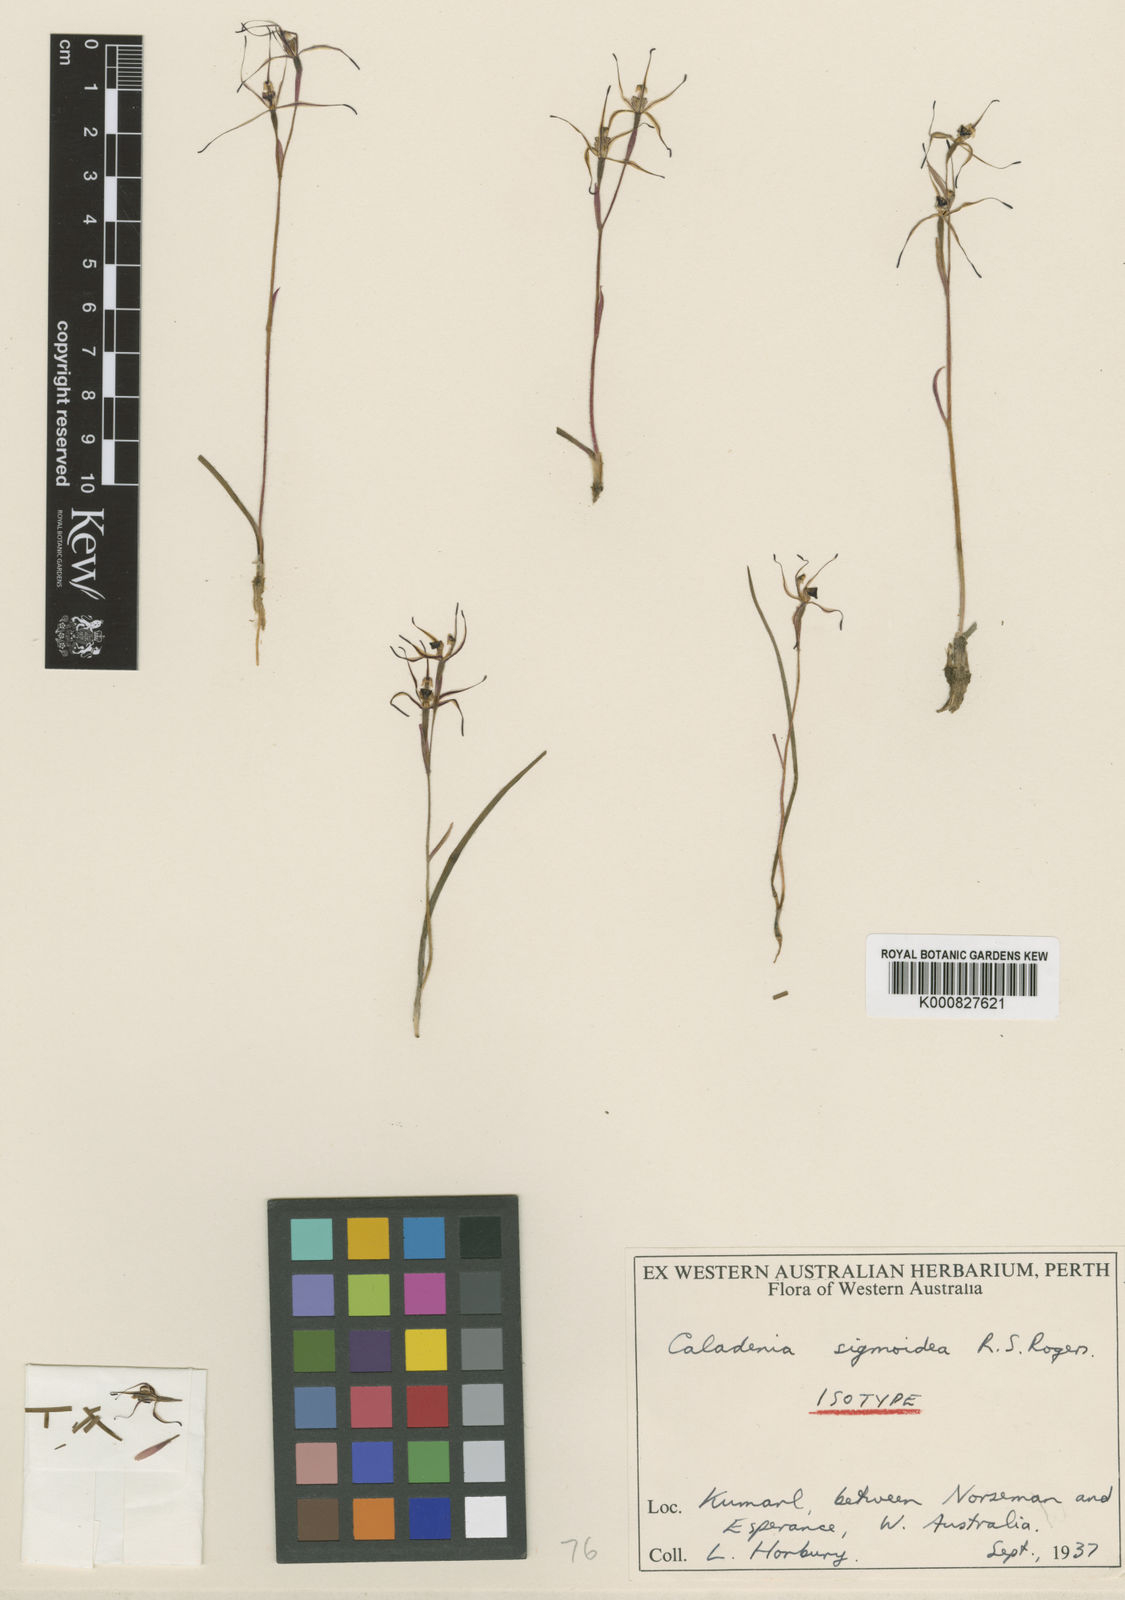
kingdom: Plantae
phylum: Tracheophyta
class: Liliopsida
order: Asparagales
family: Orchidaceae
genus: Caladenia
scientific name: Caladenia sigmoidea
